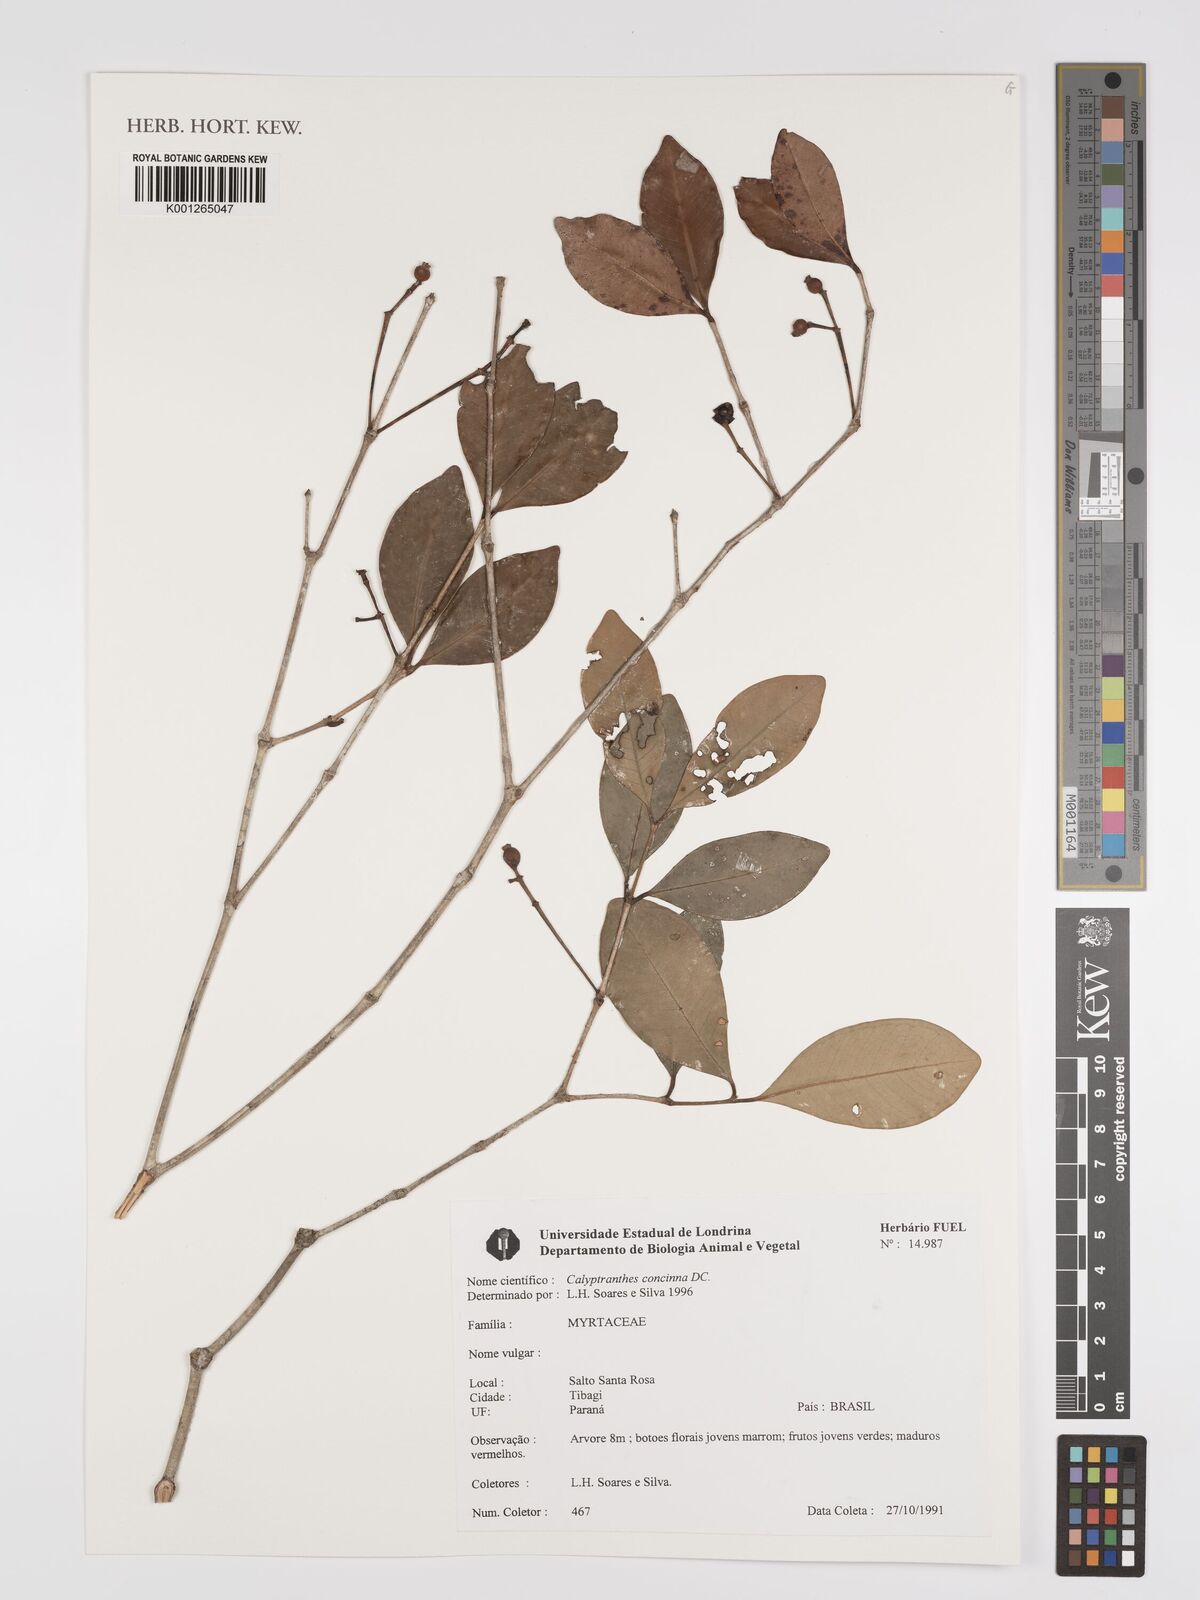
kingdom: Plantae
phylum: Tracheophyta
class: Magnoliopsida
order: Myrtales
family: Myrtaceae
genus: Myrcia
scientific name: Myrcia cruciflora
